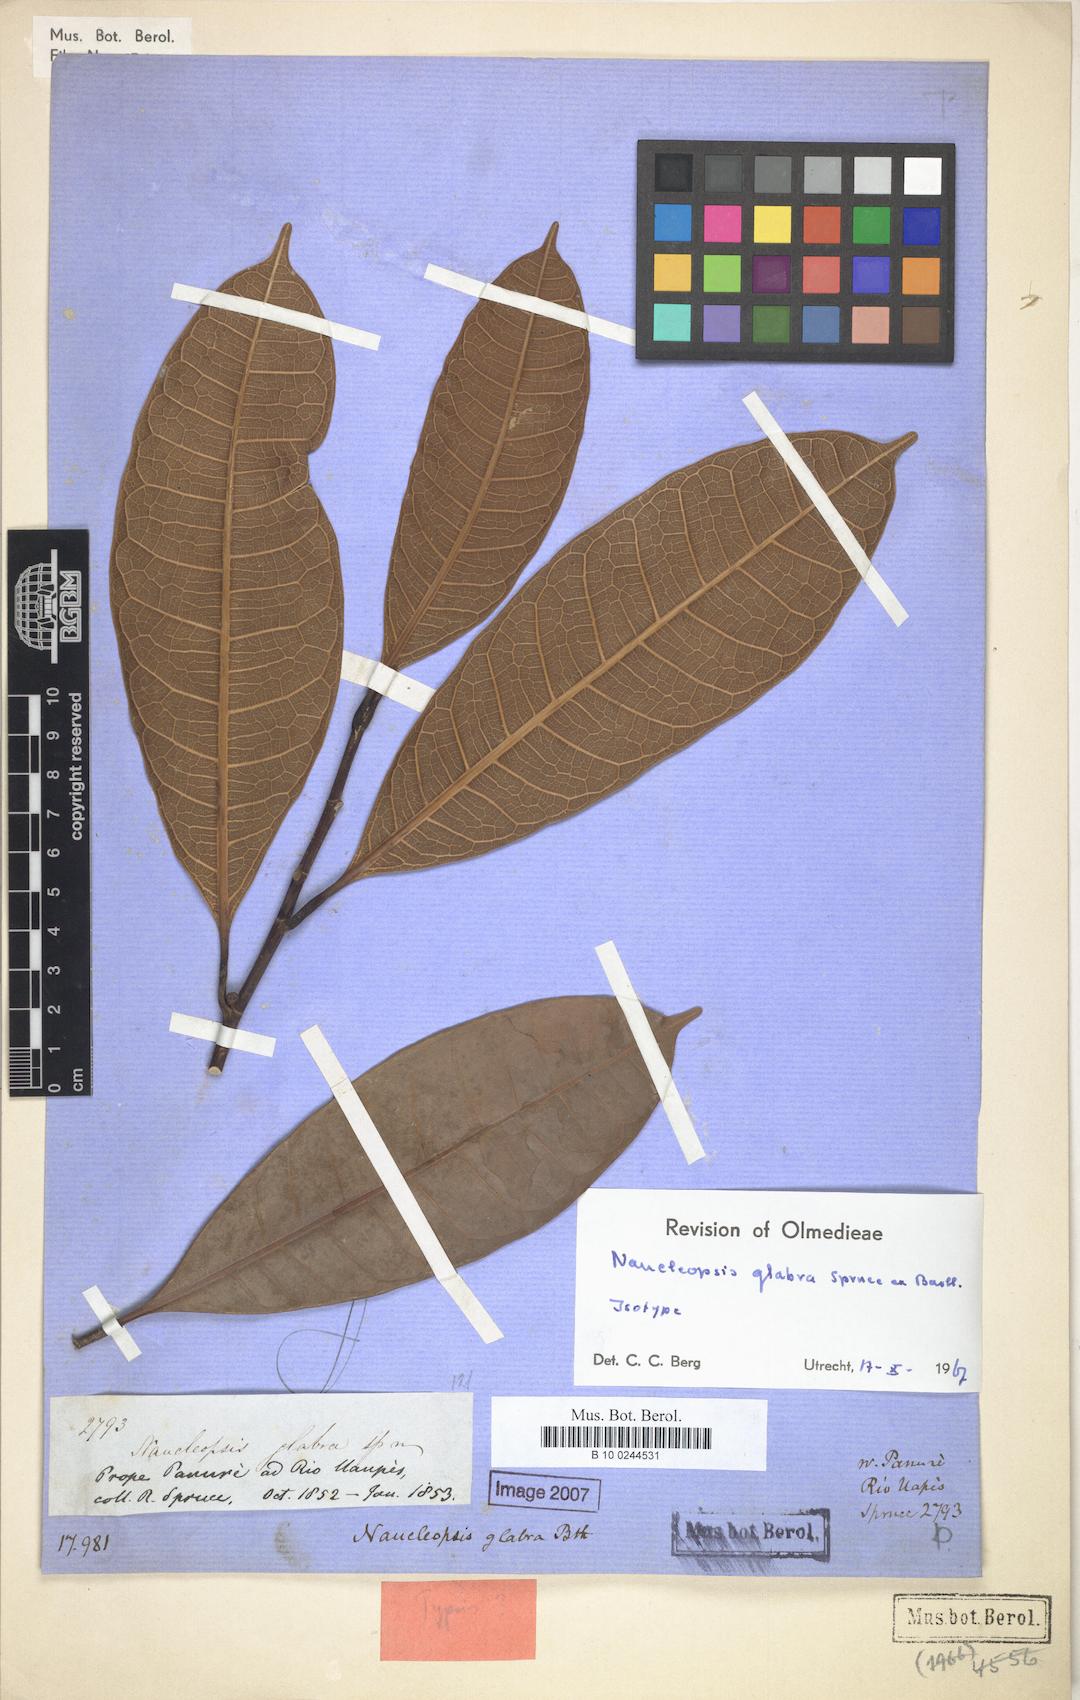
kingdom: Plantae
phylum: Tracheophyta
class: Magnoliopsida
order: Rosales
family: Moraceae
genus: Naucleopsis
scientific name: Naucleopsis glabra
